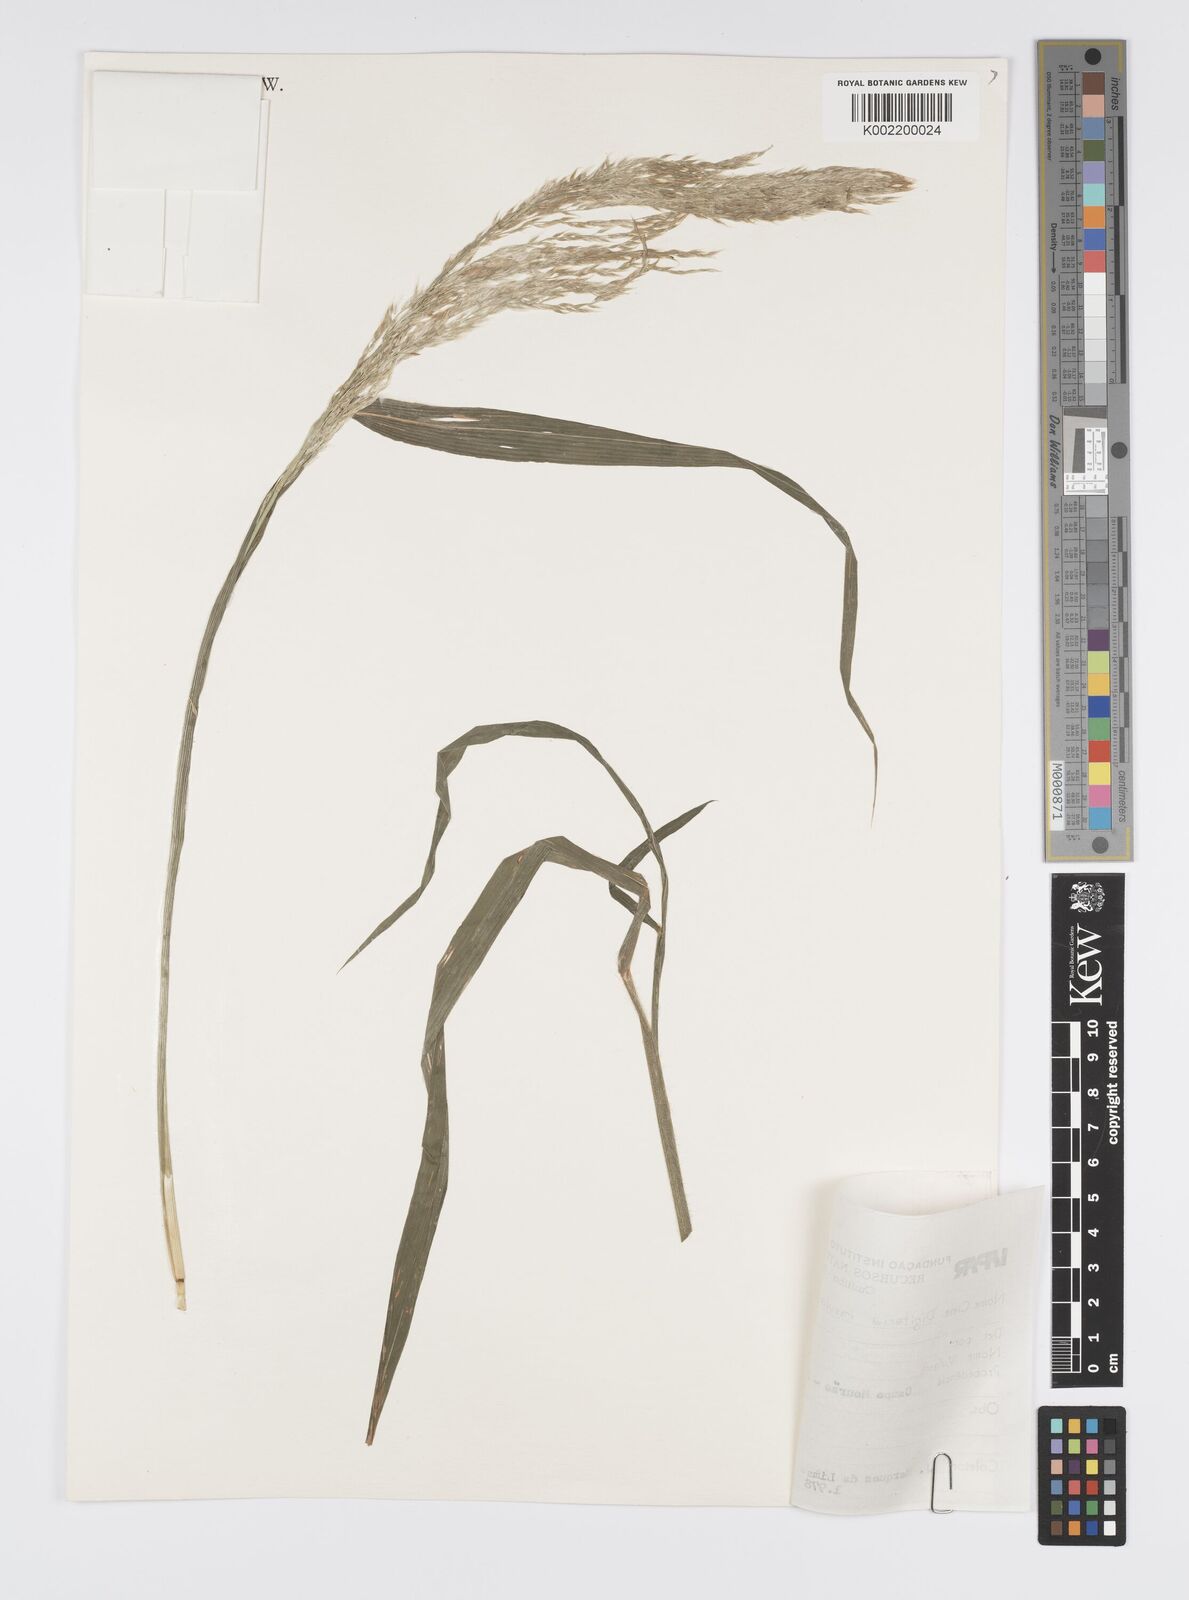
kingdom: Plantae
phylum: Tracheophyta
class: Liliopsida
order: Poales
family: Poaceae
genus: Digitaria
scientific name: Digitaria insularis
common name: Sourgrass
